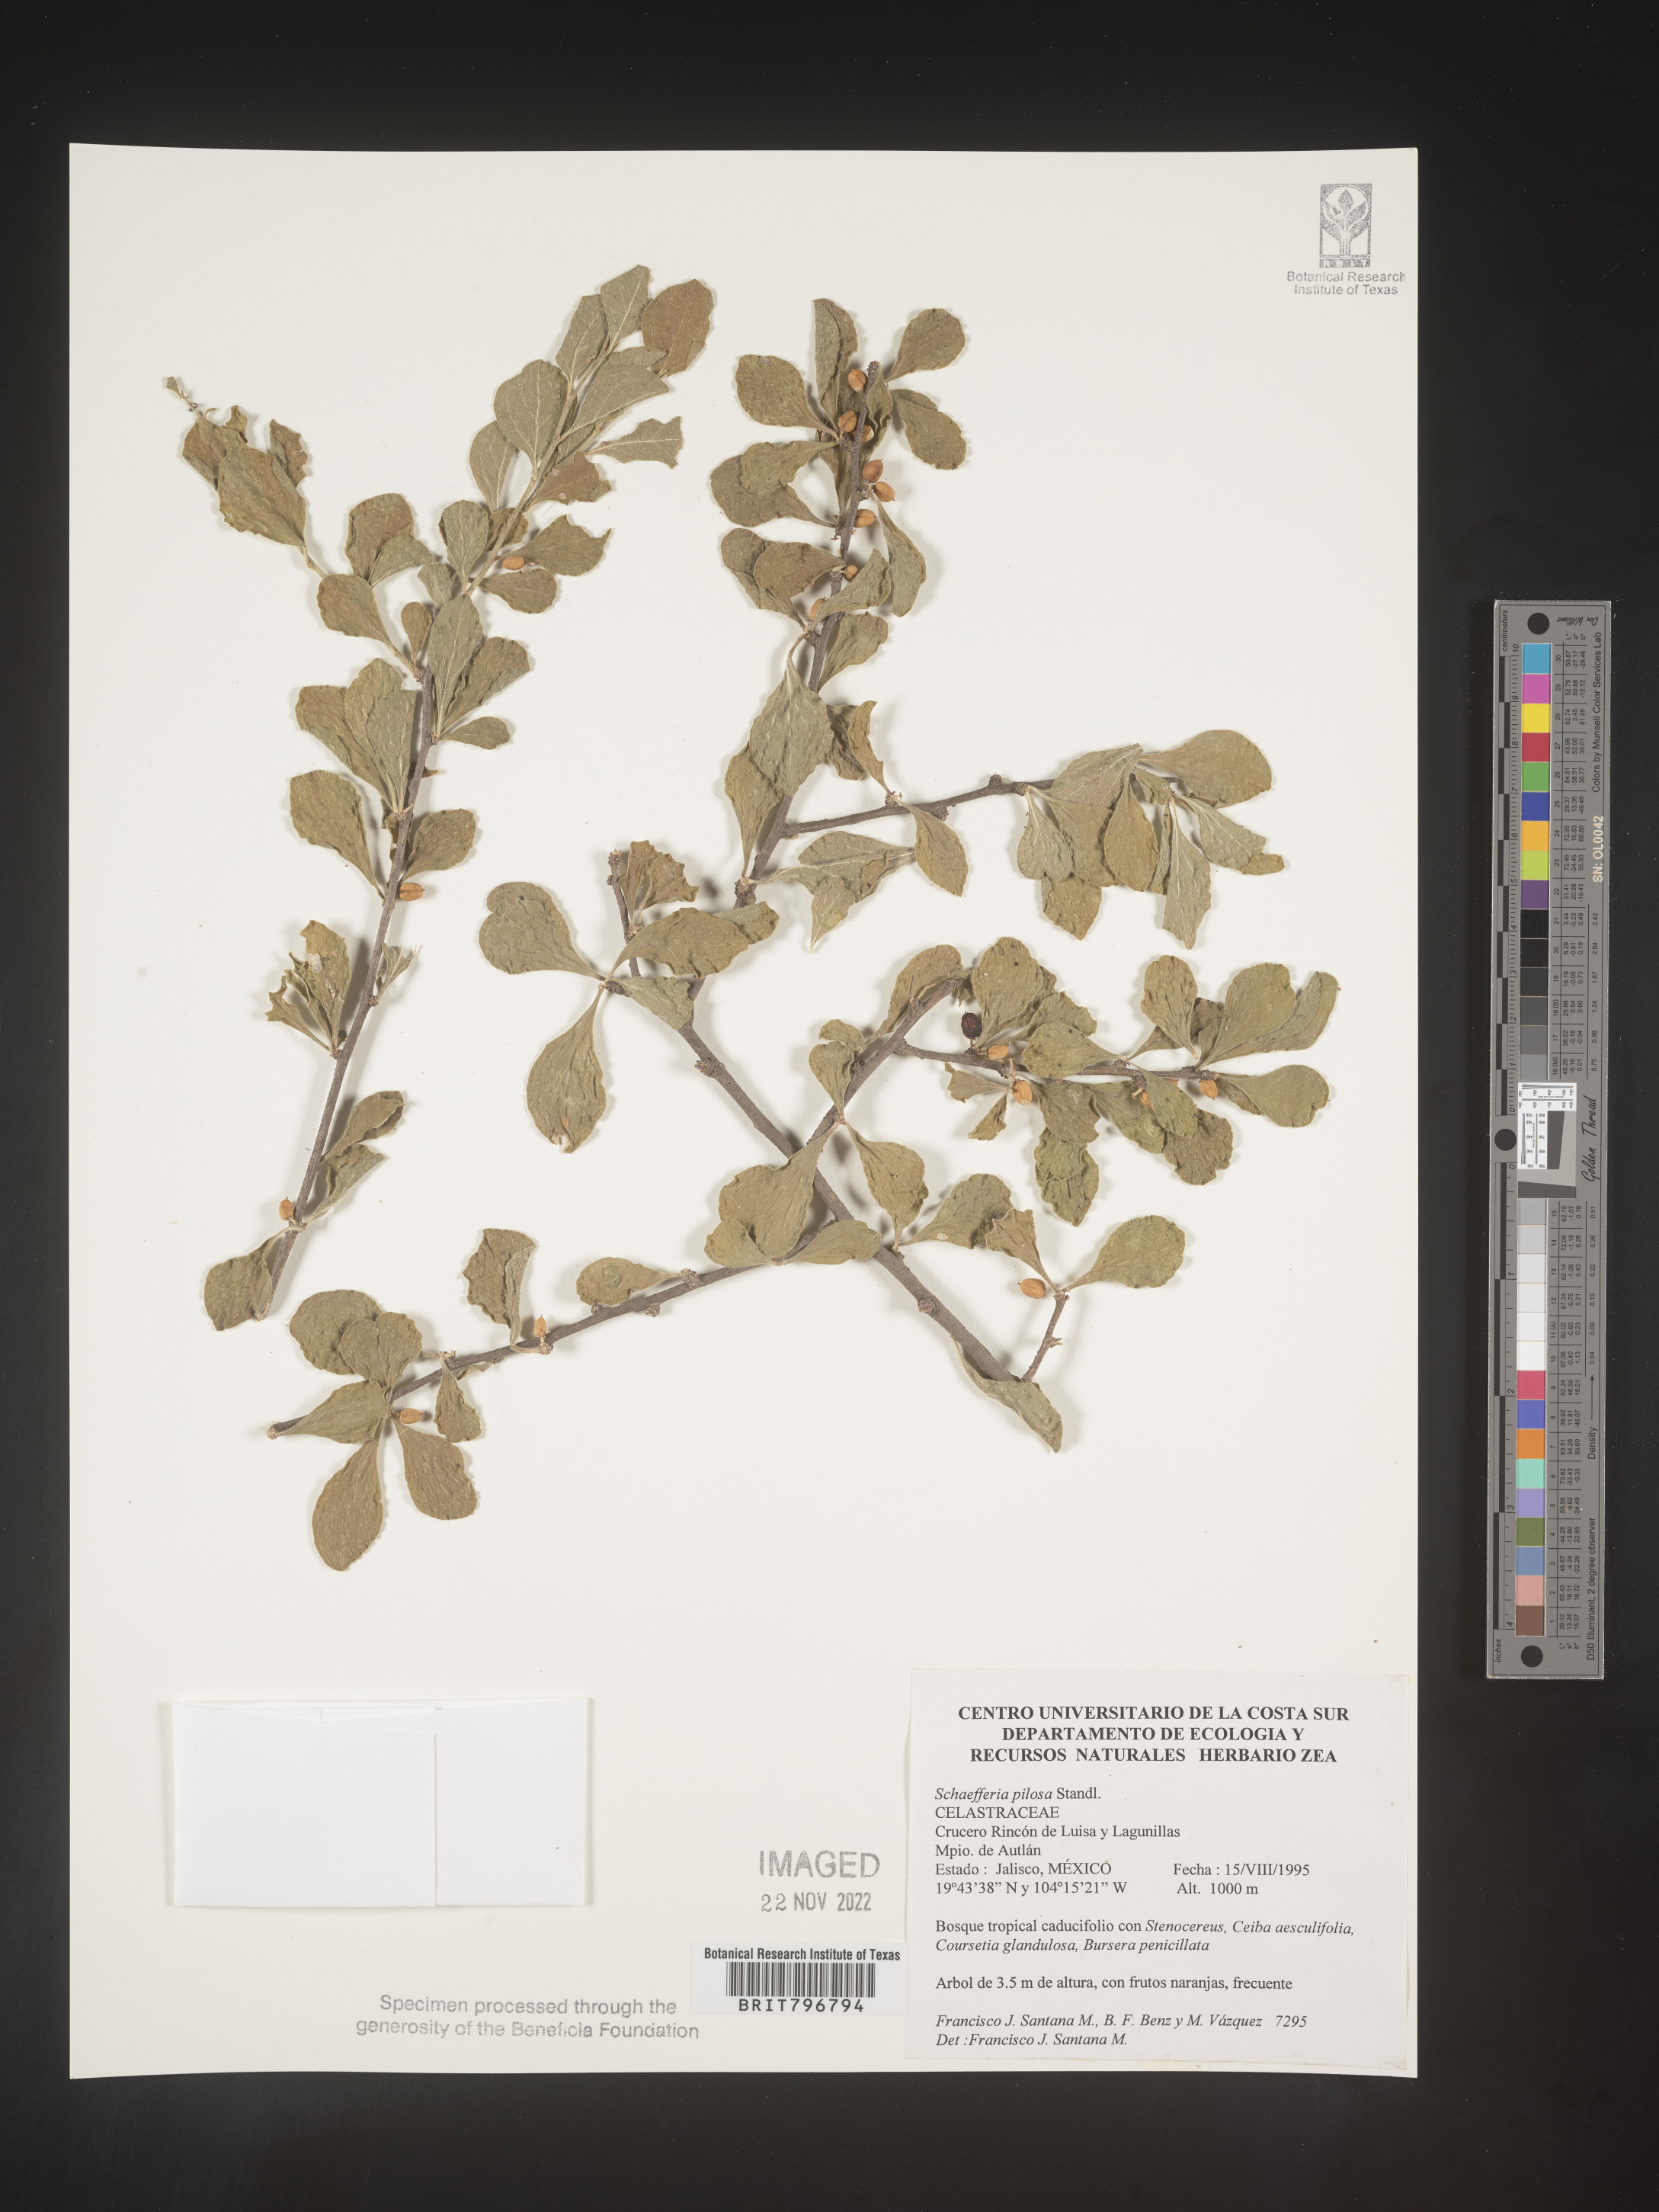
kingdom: Plantae
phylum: Tracheophyta
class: Magnoliopsida
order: Celastrales
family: Celastraceae
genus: Schaefferia
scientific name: Schaefferia
